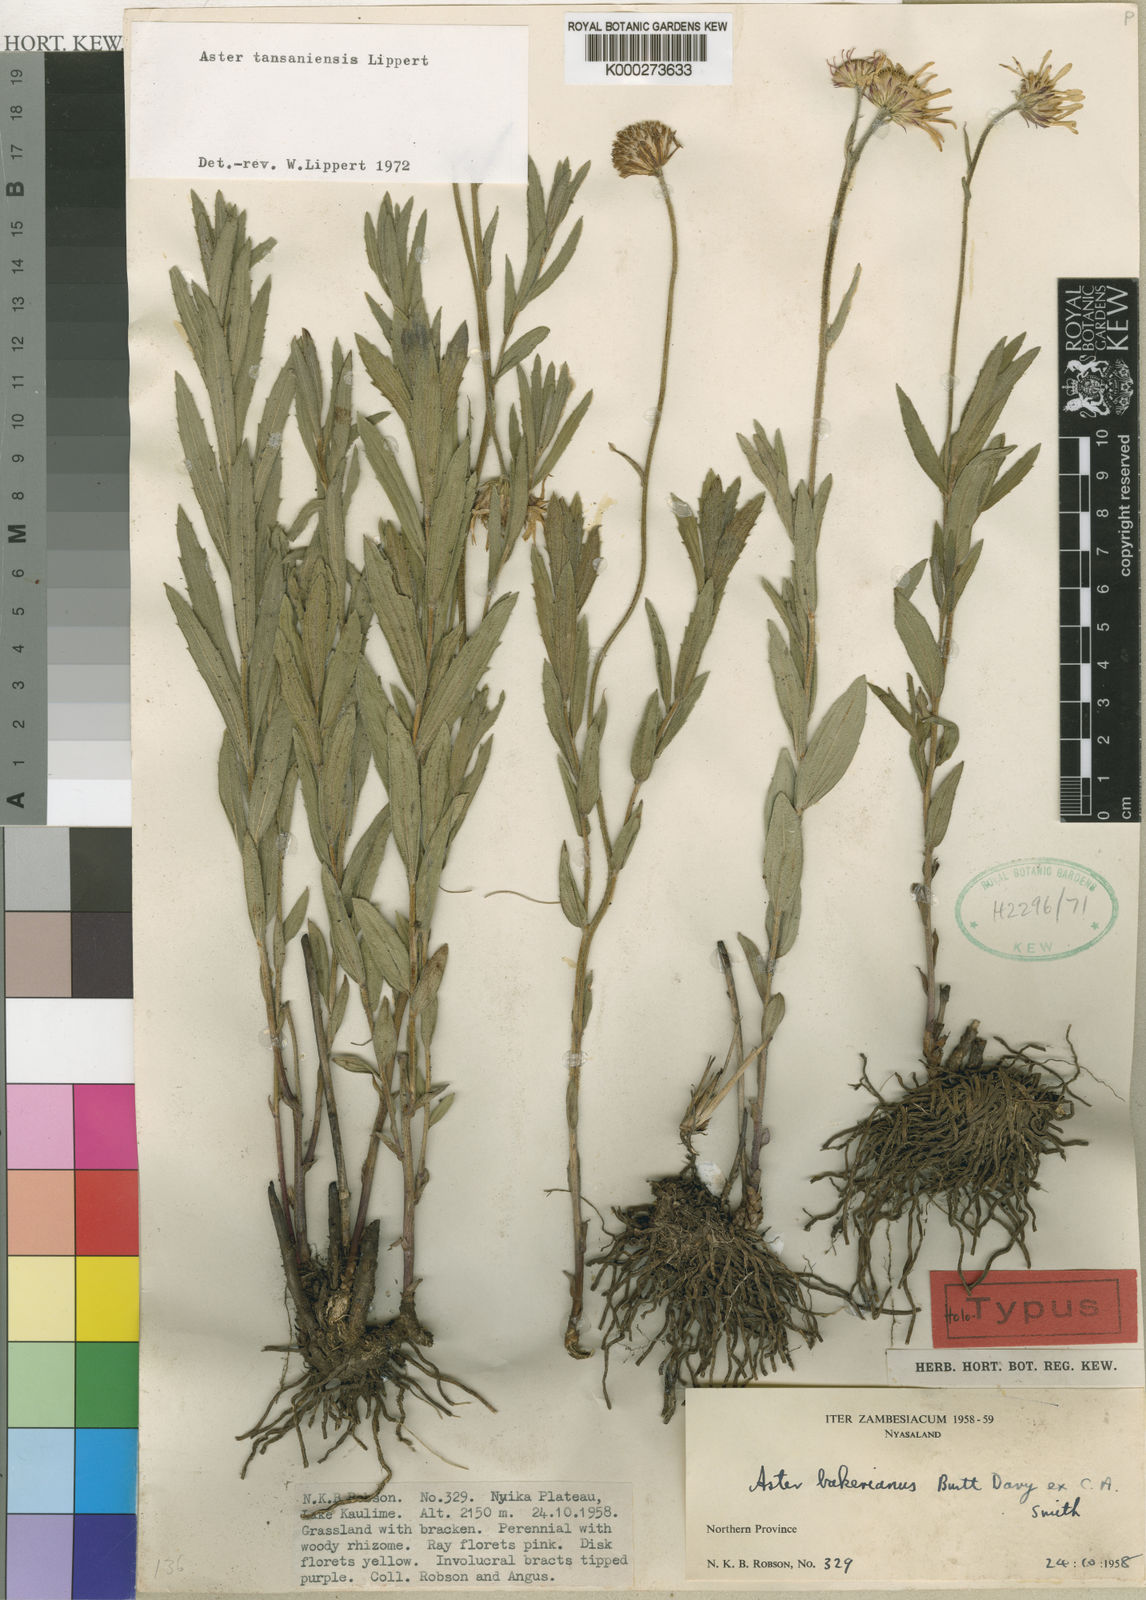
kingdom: Plantae
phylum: Tracheophyta
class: Magnoliopsida
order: Asterales
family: Asteraceae
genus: Afroaster
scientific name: Afroaster tansaniensis
